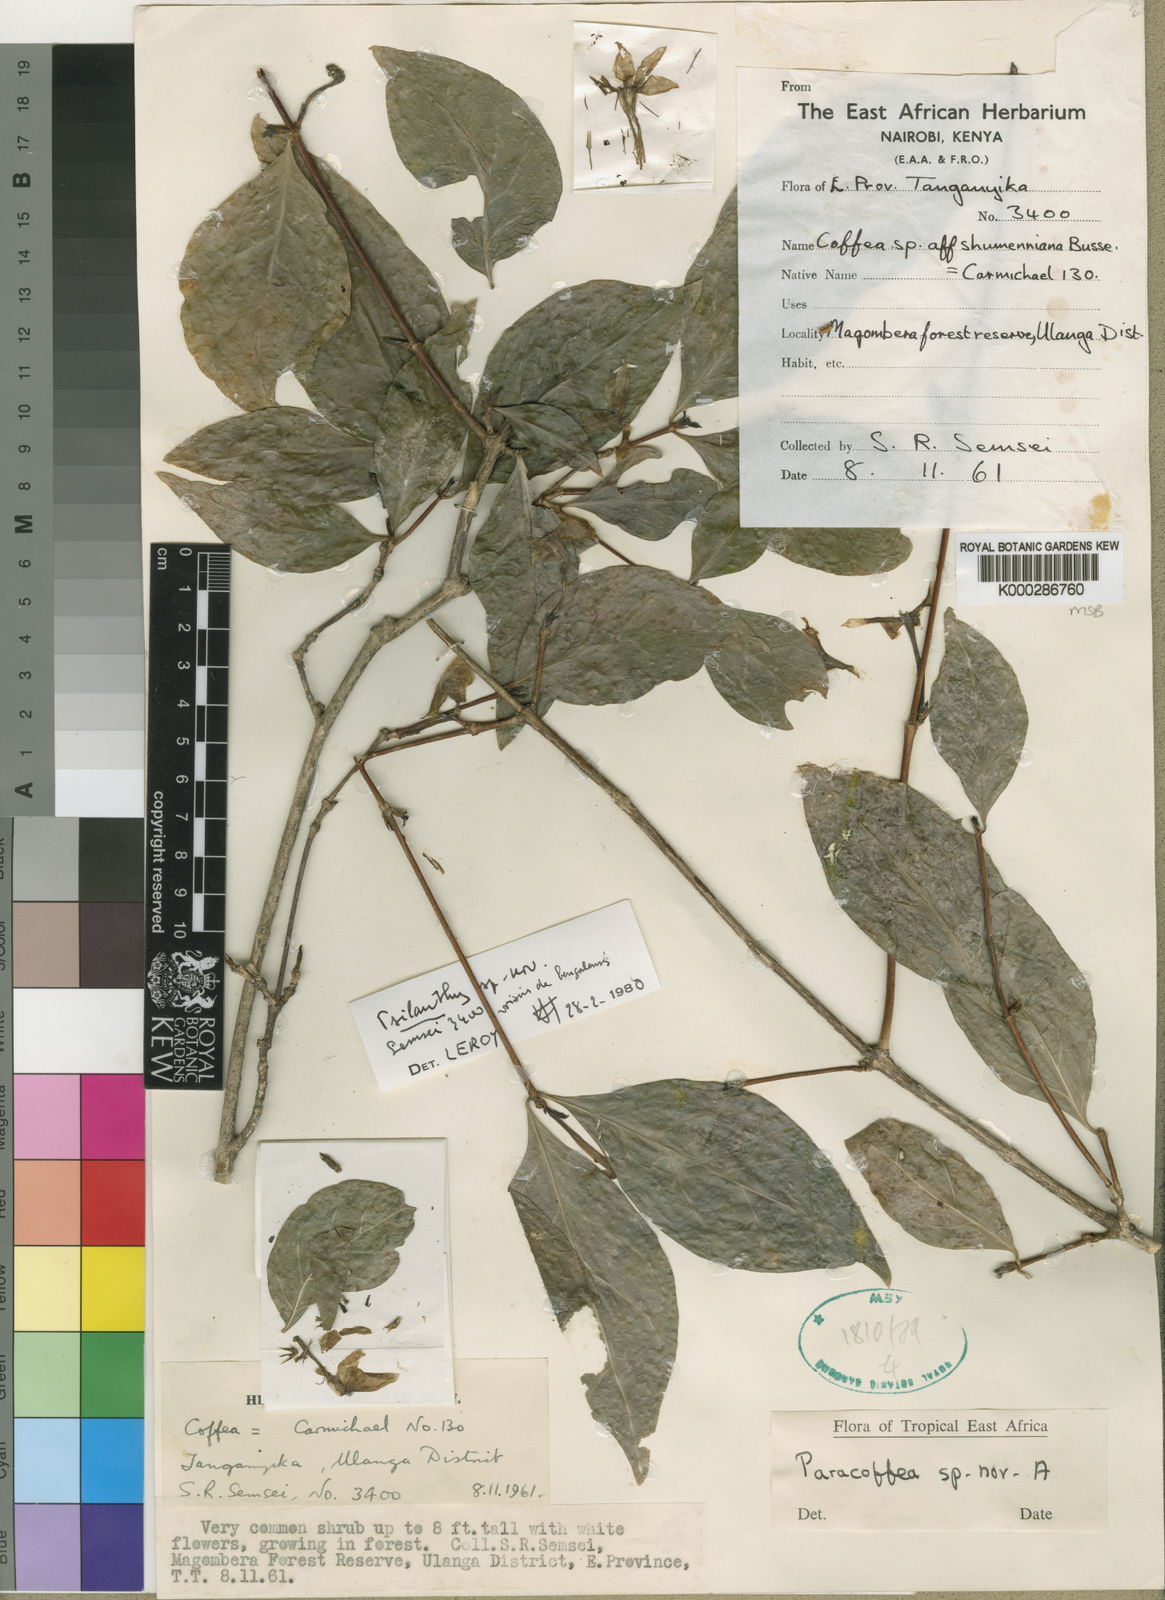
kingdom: Plantae
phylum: Tracheophyta
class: Magnoliopsida
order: Gentianales
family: Rubiaceae
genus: Coffea
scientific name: Coffea semsei
